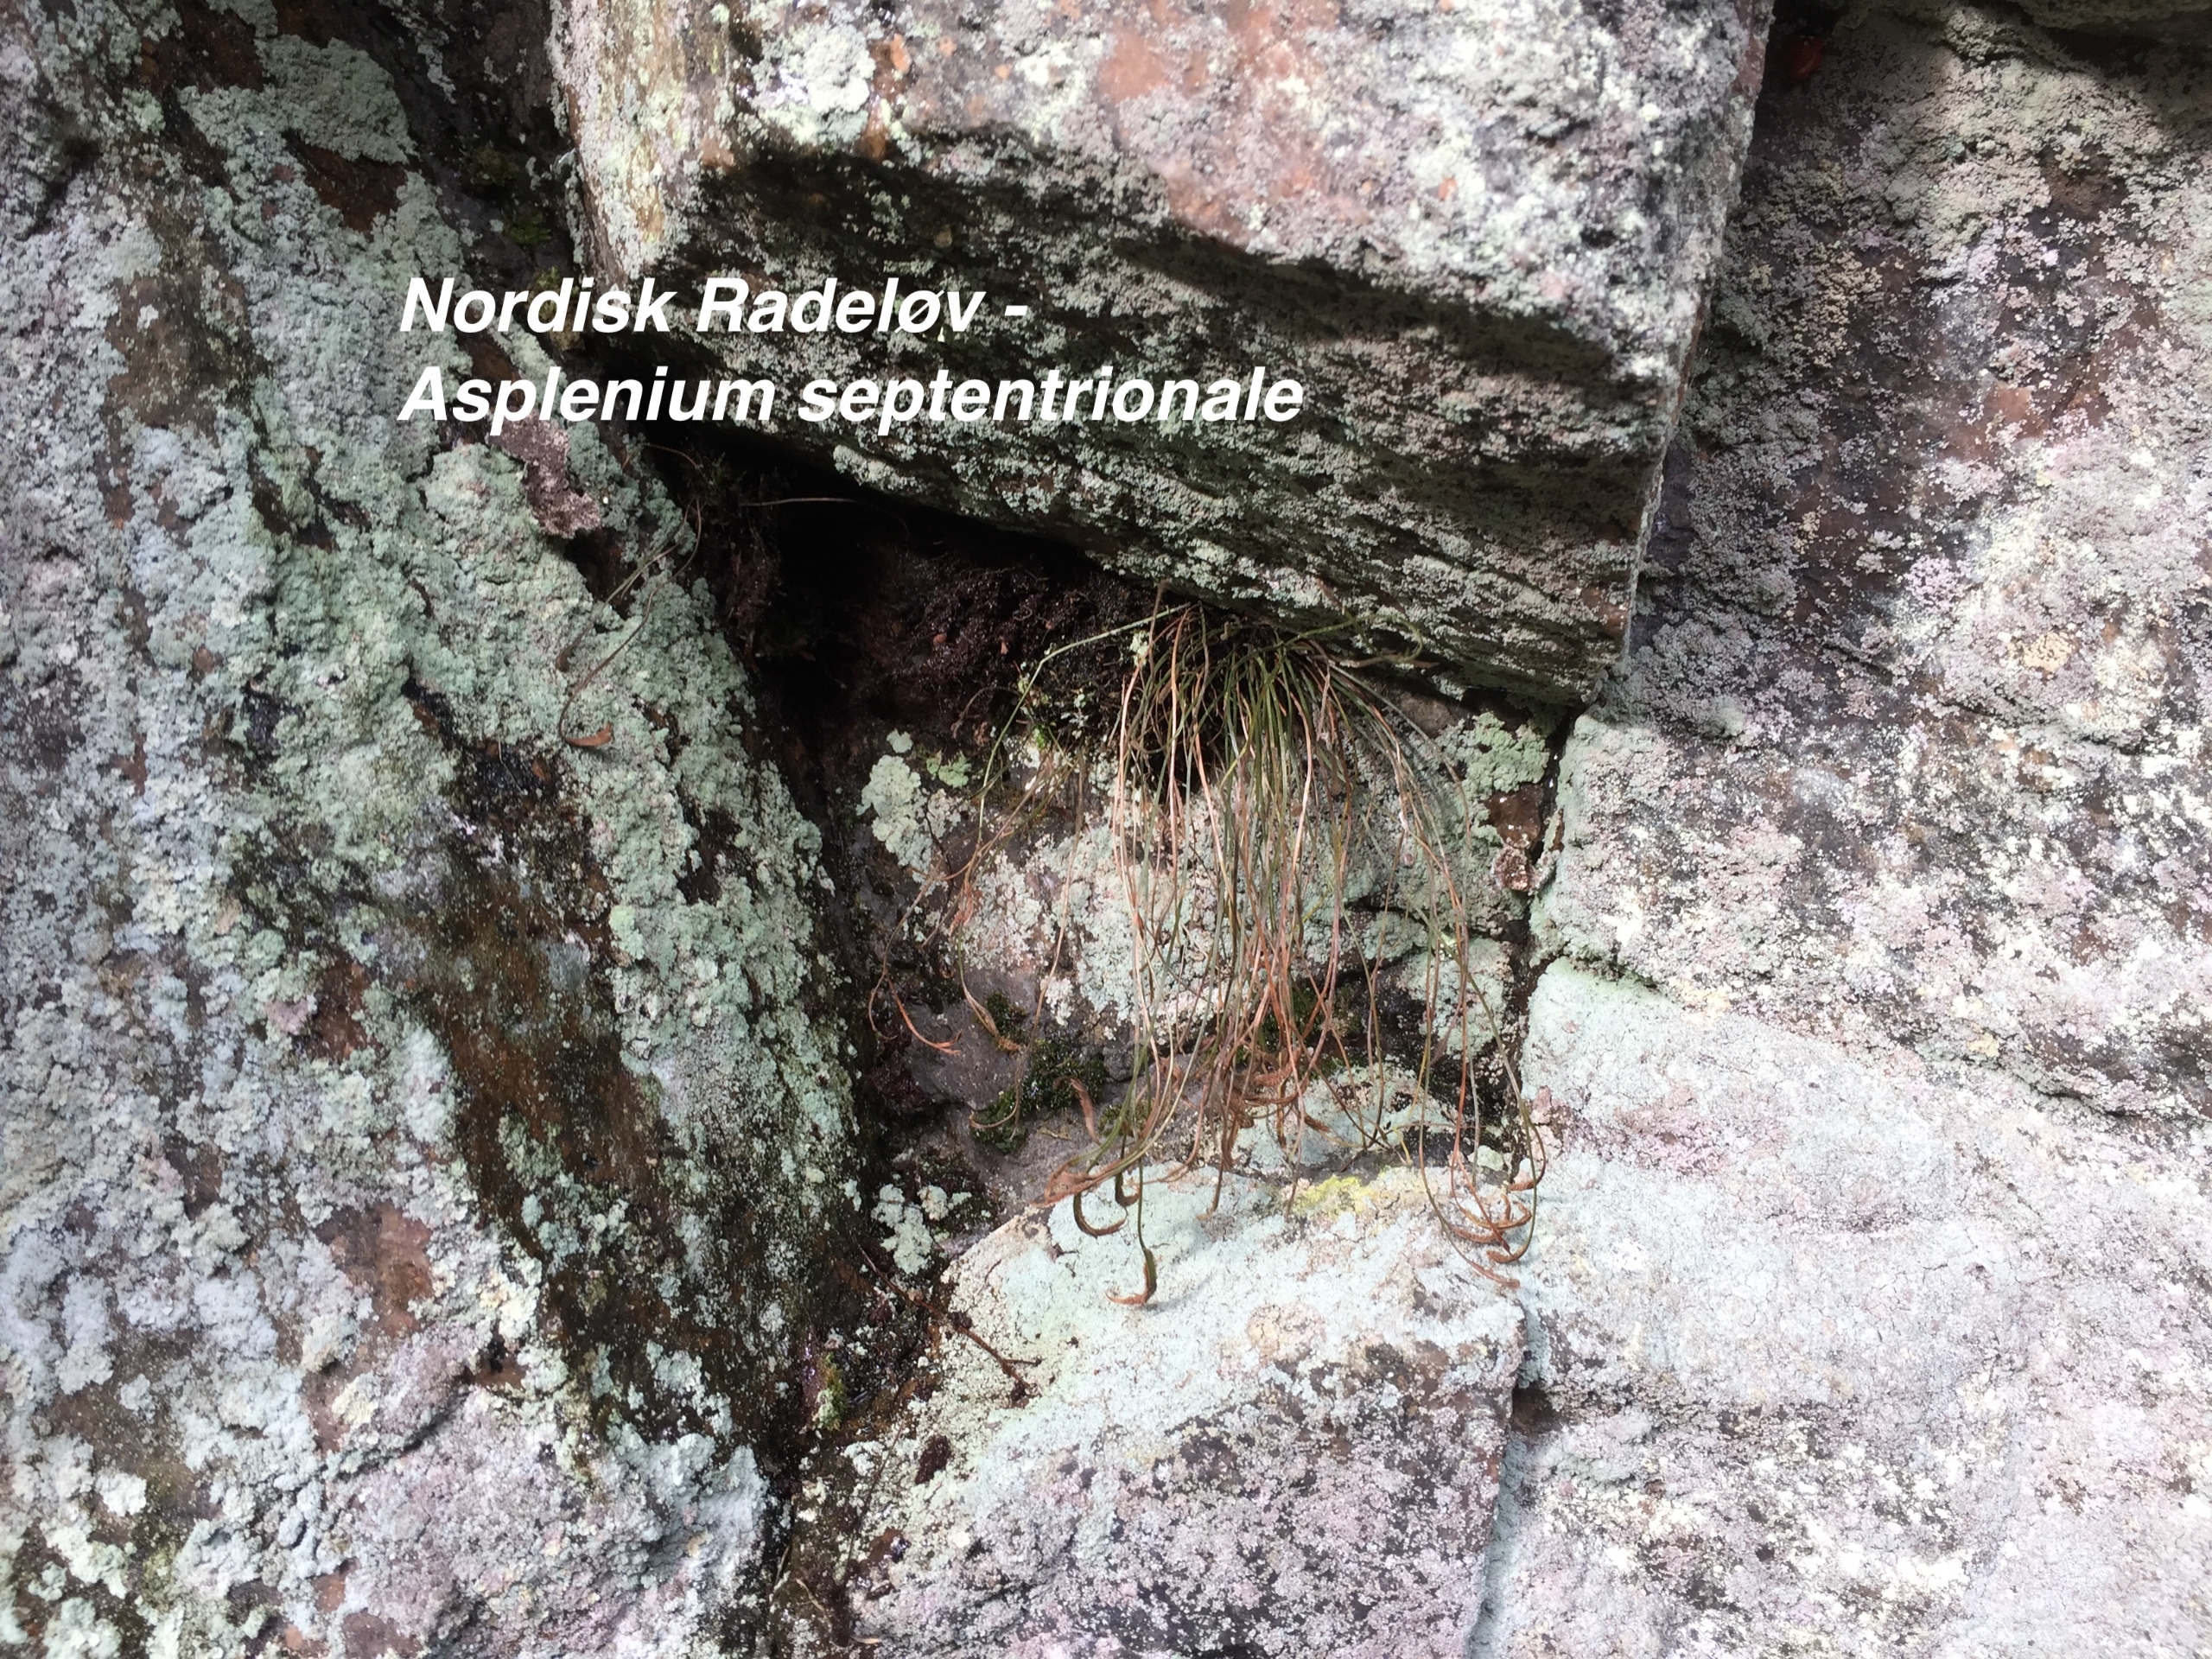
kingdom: Plantae
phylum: Tracheophyta
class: Polypodiopsida
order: Polypodiales
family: Aspleniaceae
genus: Asplenium
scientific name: Asplenium septentrionale
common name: Nordisk radeløv
